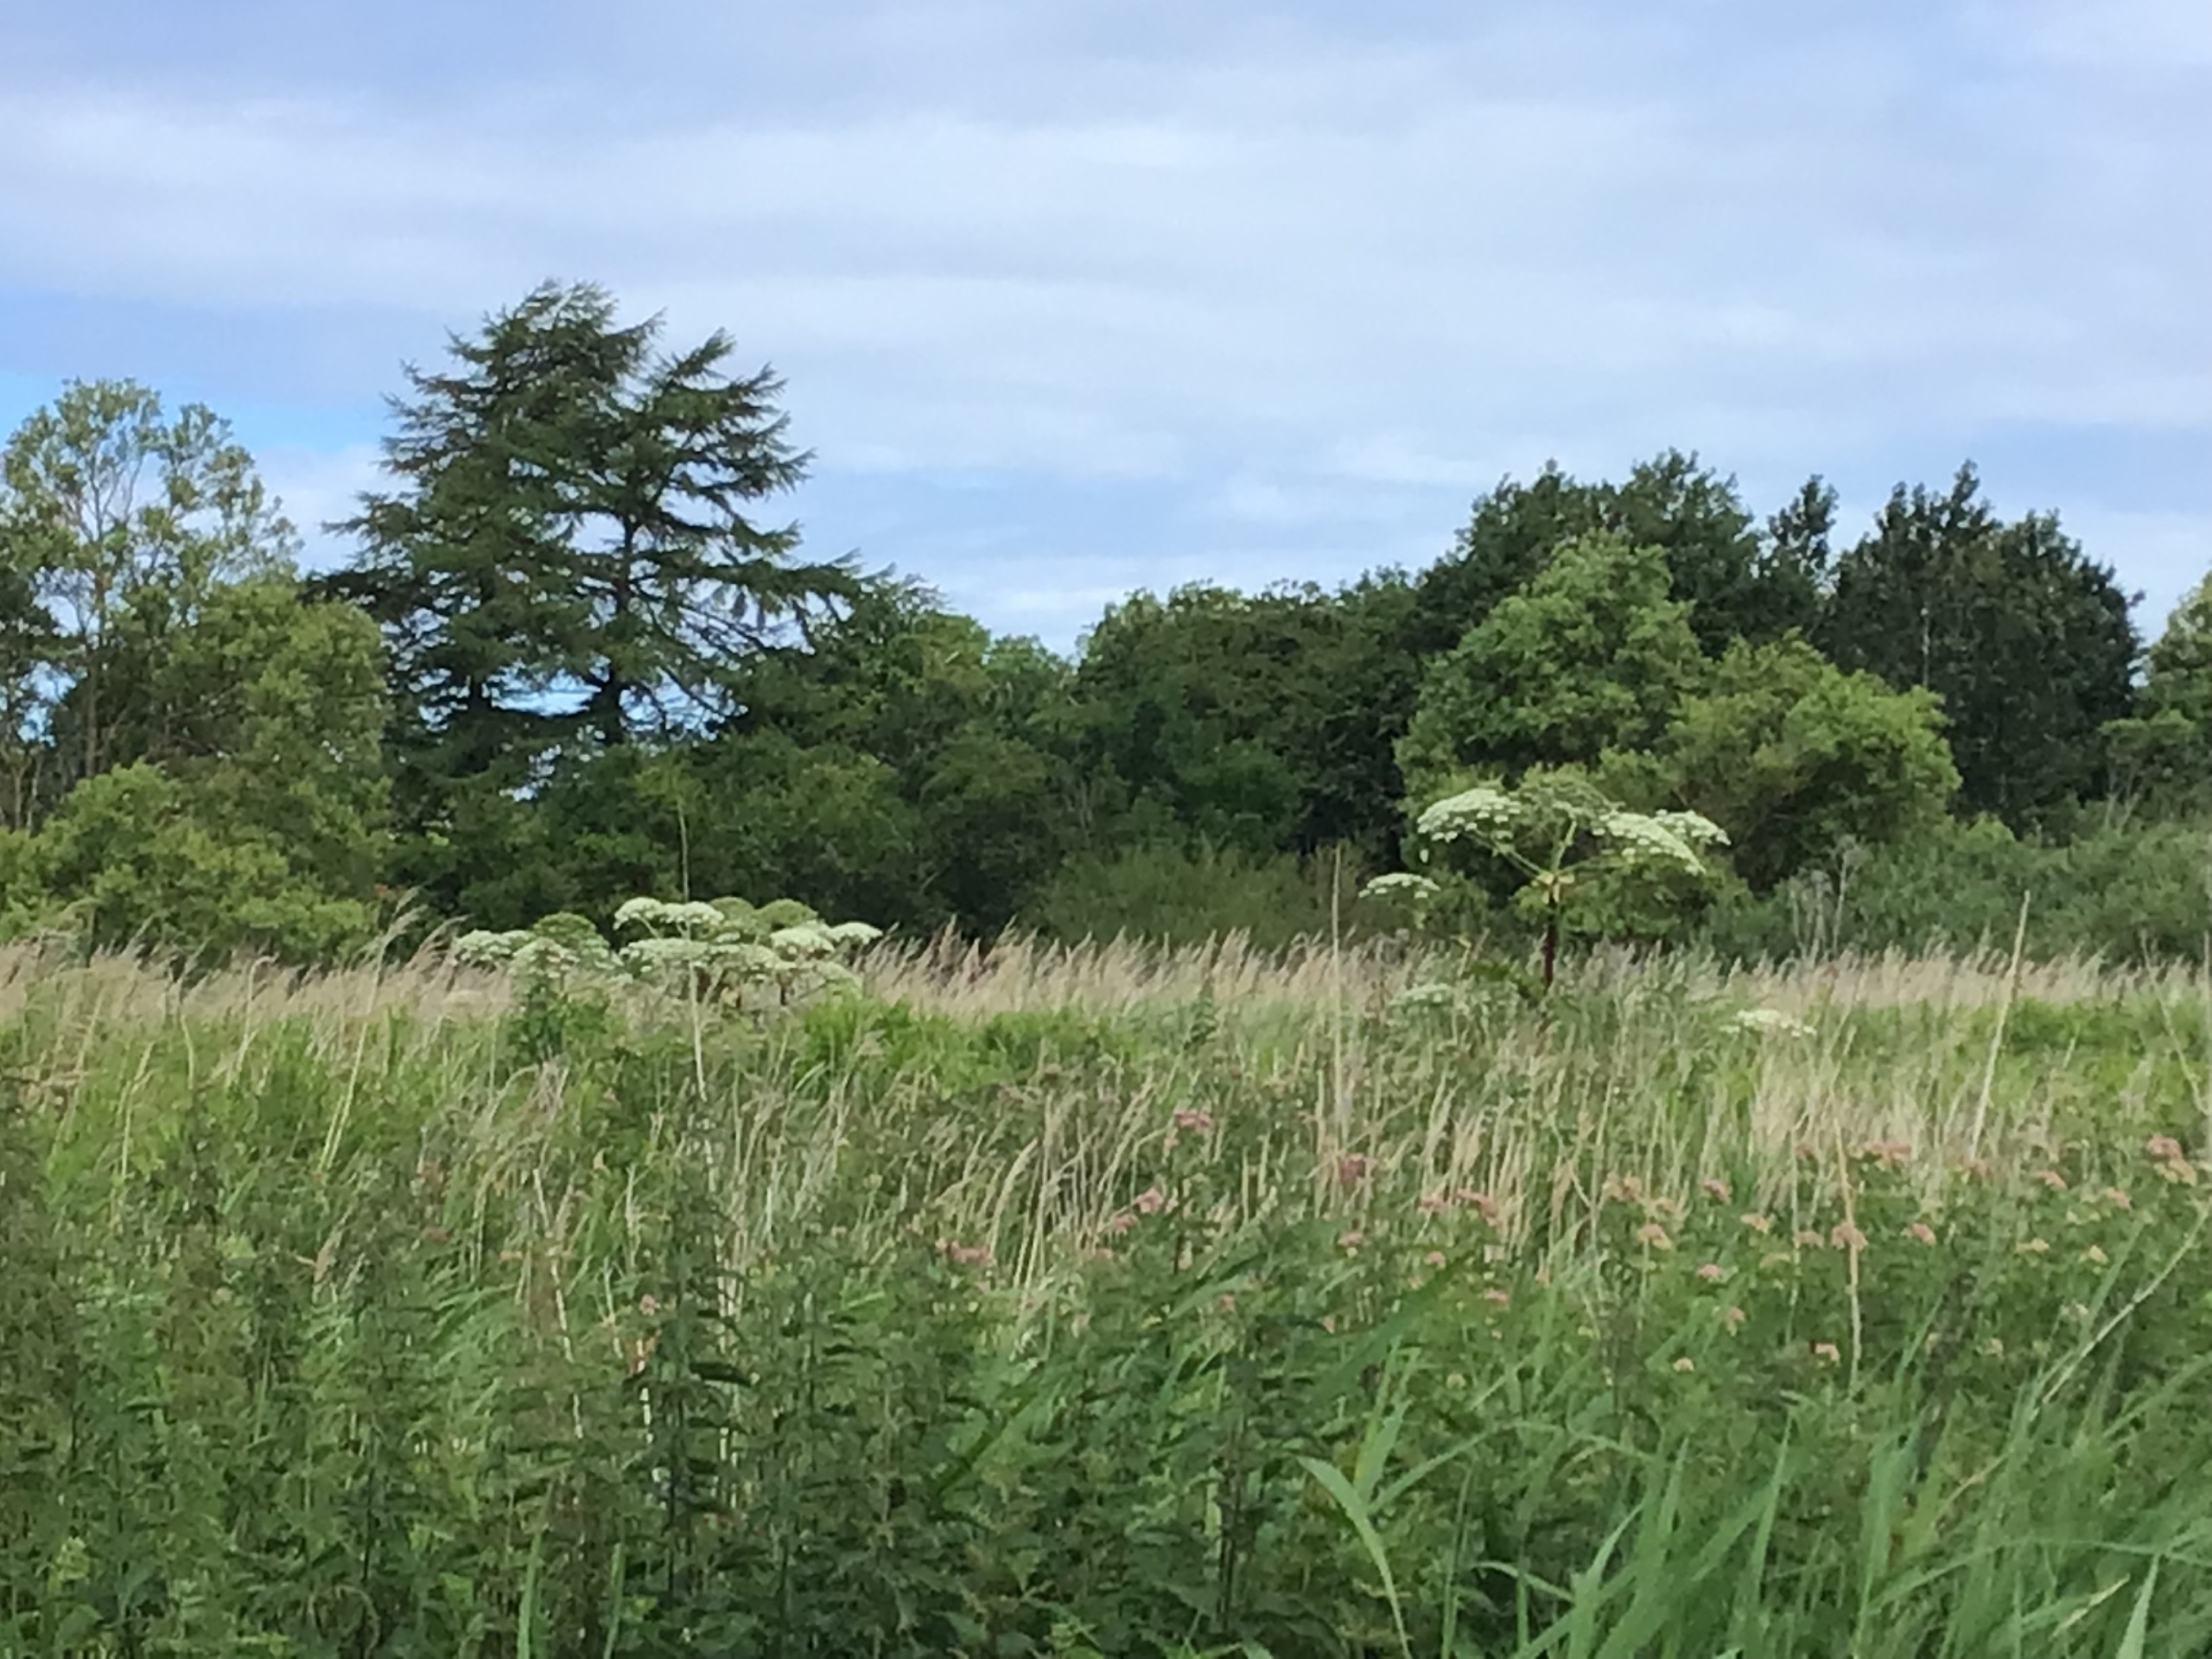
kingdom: Plantae
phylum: Tracheophyta
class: Magnoliopsida
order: Apiales
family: Apiaceae
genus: Heracleum
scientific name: Heracleum mantegazzianum
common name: Kæmpe-bjørneklo
